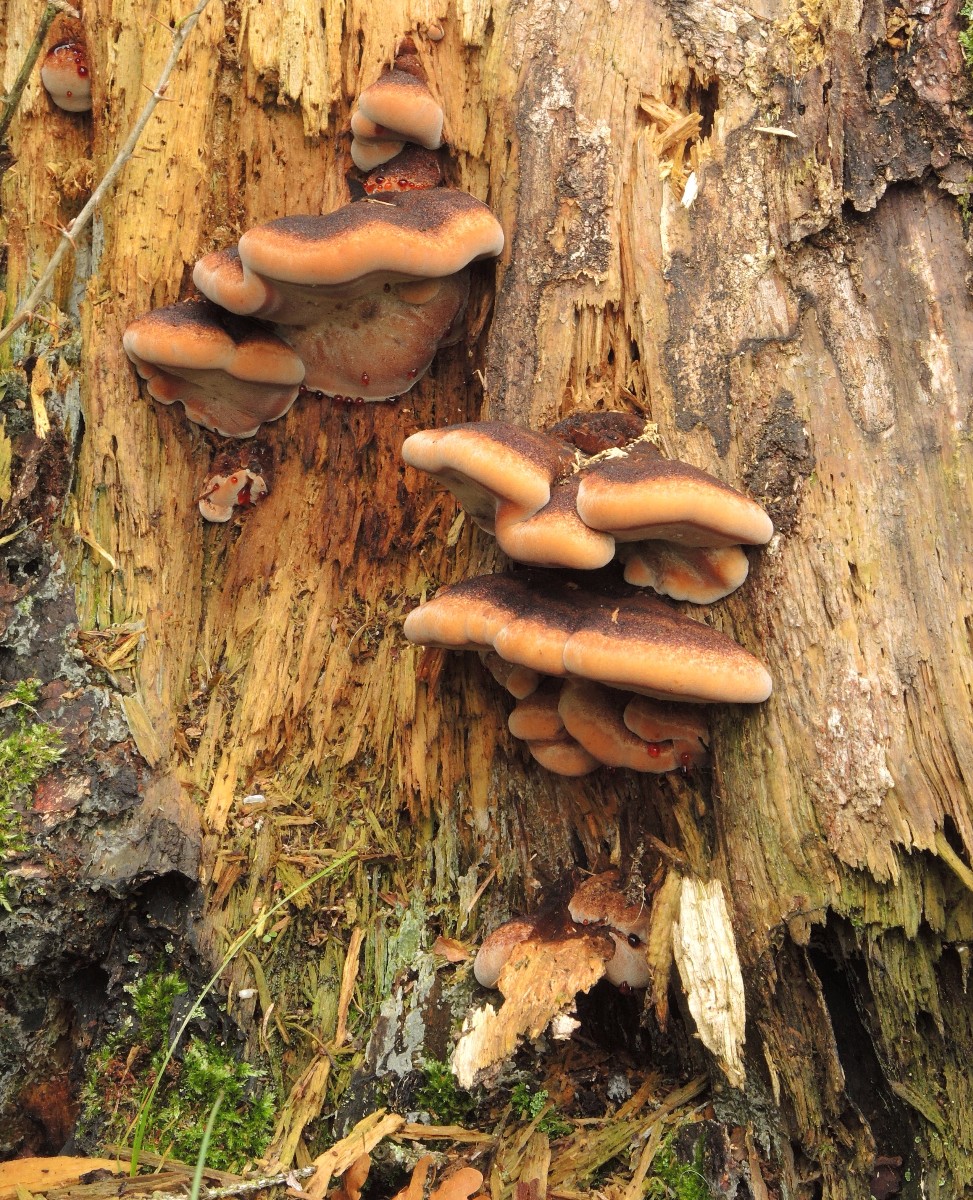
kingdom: Fungi
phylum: Basidiomycota
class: Agaricomycetes
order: Polyporales
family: Ischnodermataceae
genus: Ischnoderma
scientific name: Ischnoderma benzoinum
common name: gran-tjæreporesvamp
